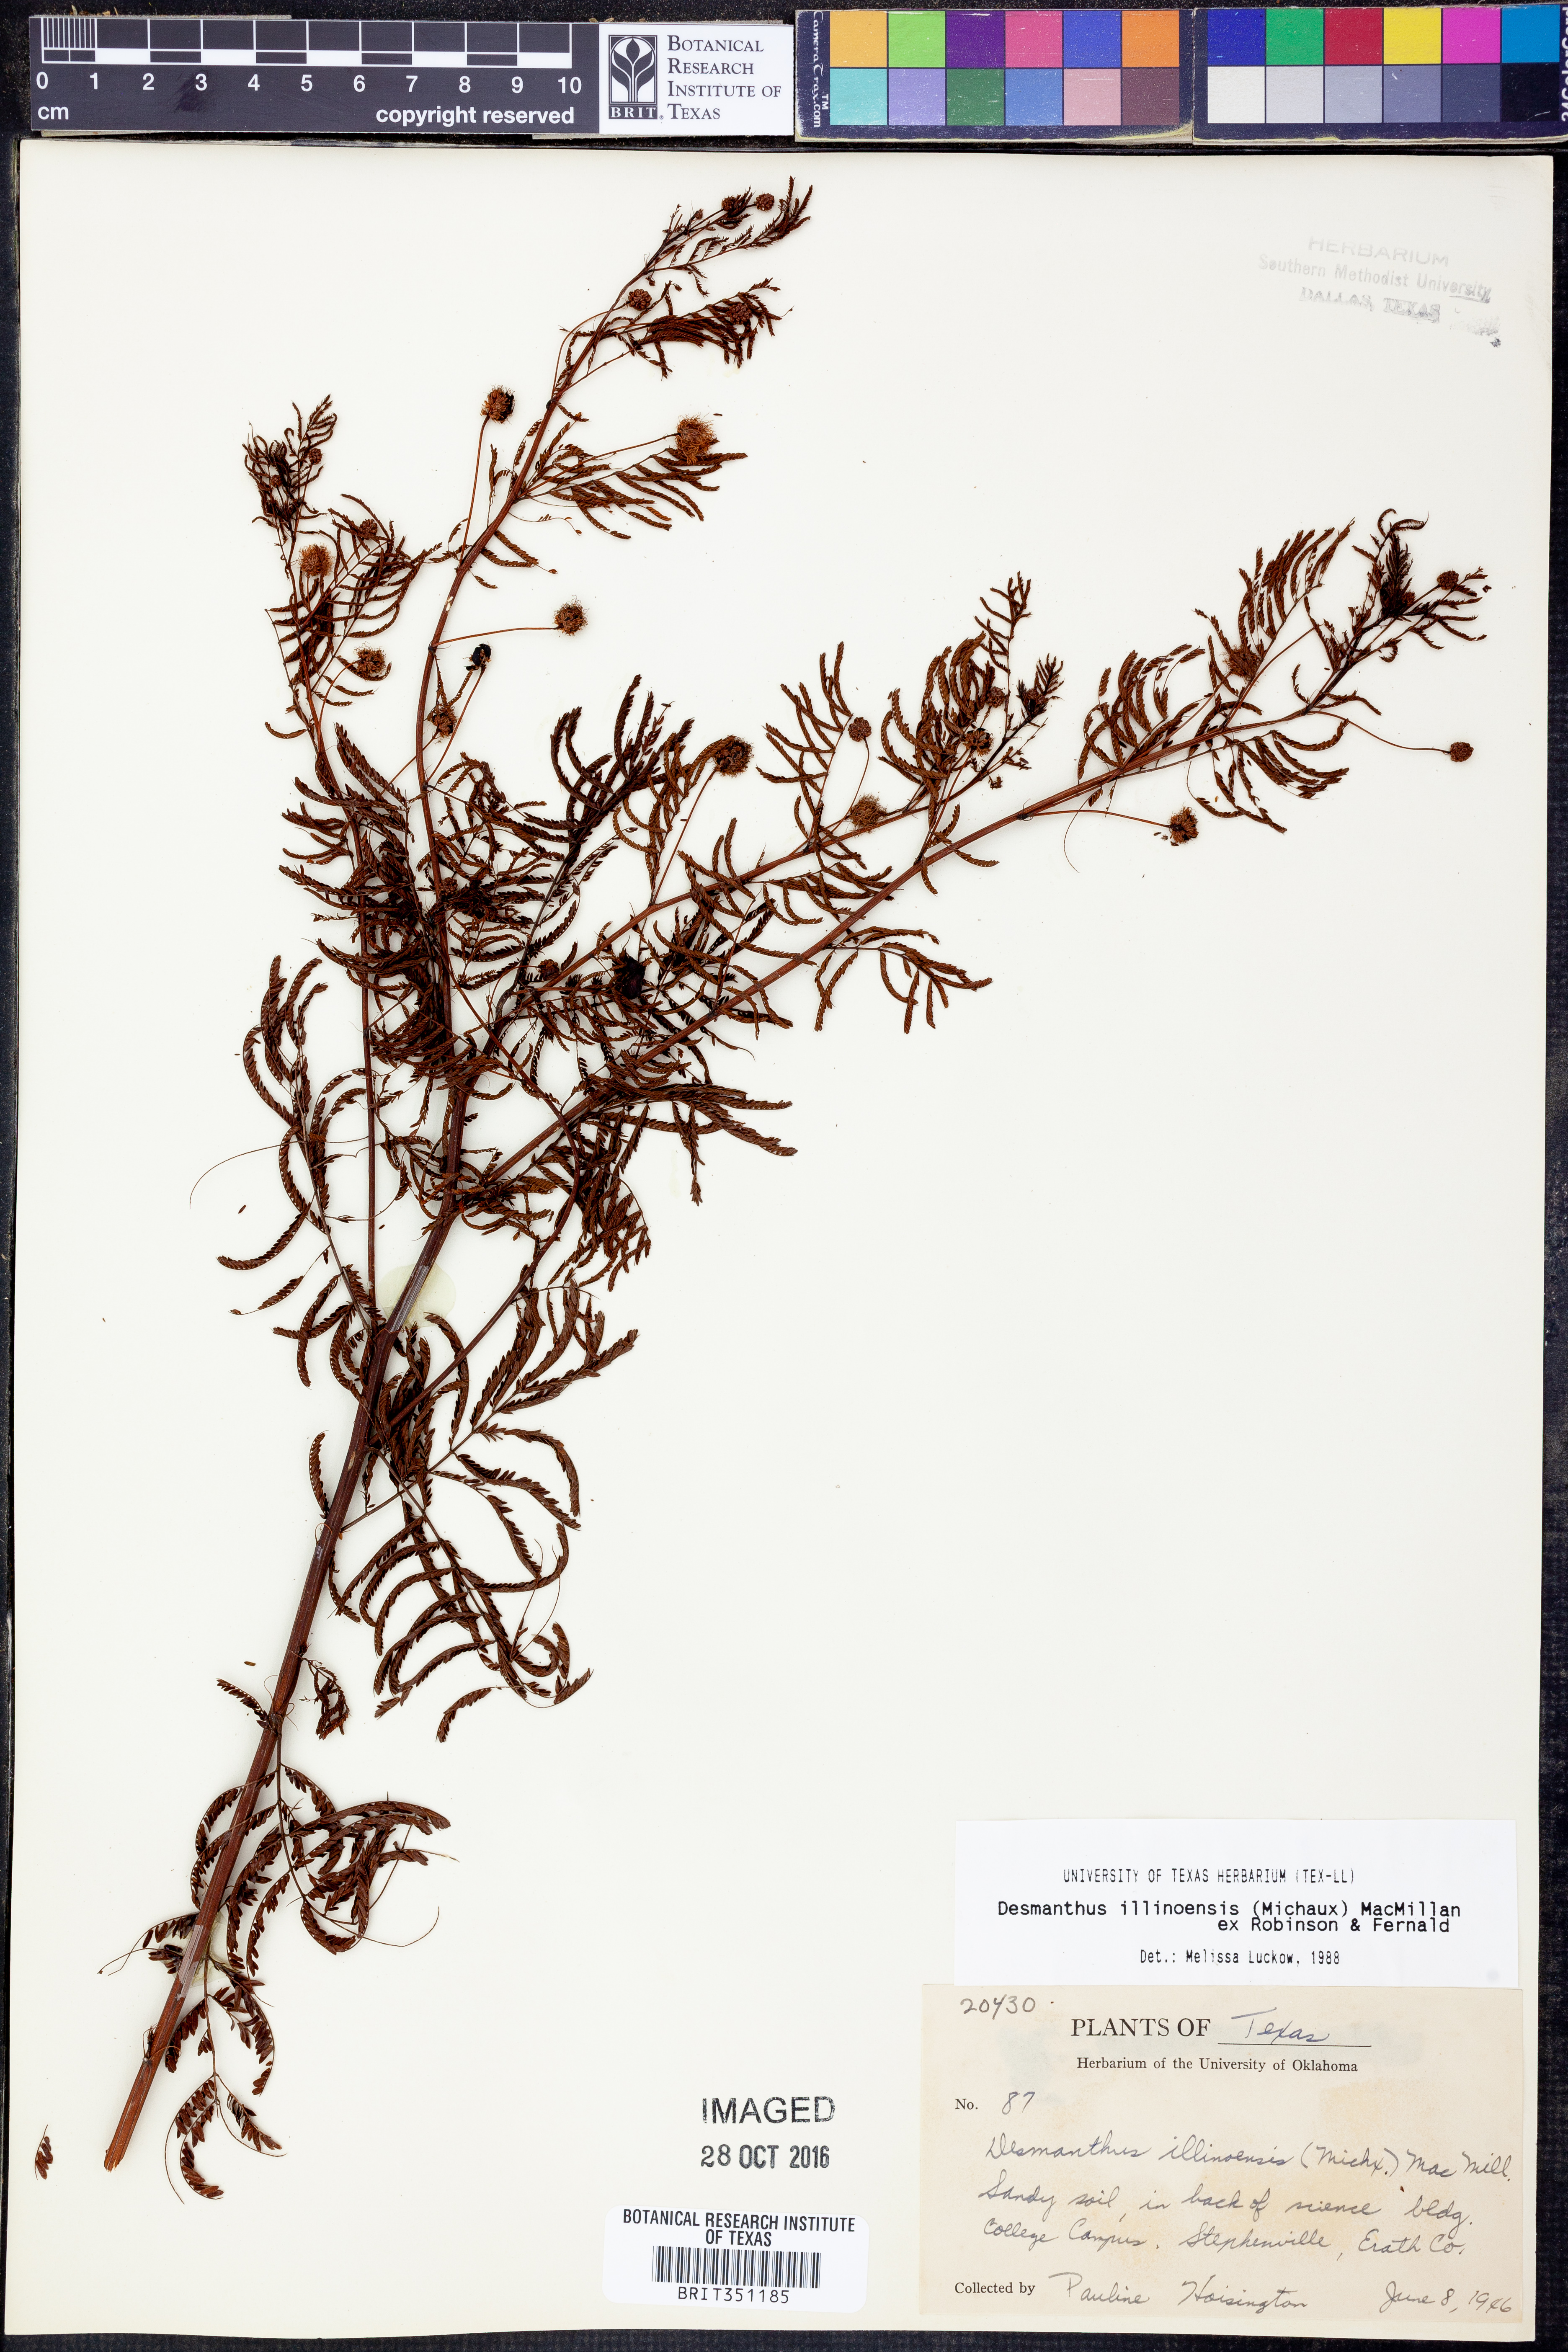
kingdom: Plantae
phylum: Tracheophyta
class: Magnoliopsida
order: Fabales
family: Fabaceae
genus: Desmanthus
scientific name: Desmanthus illinoensis
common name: Illinois bundle-flower
